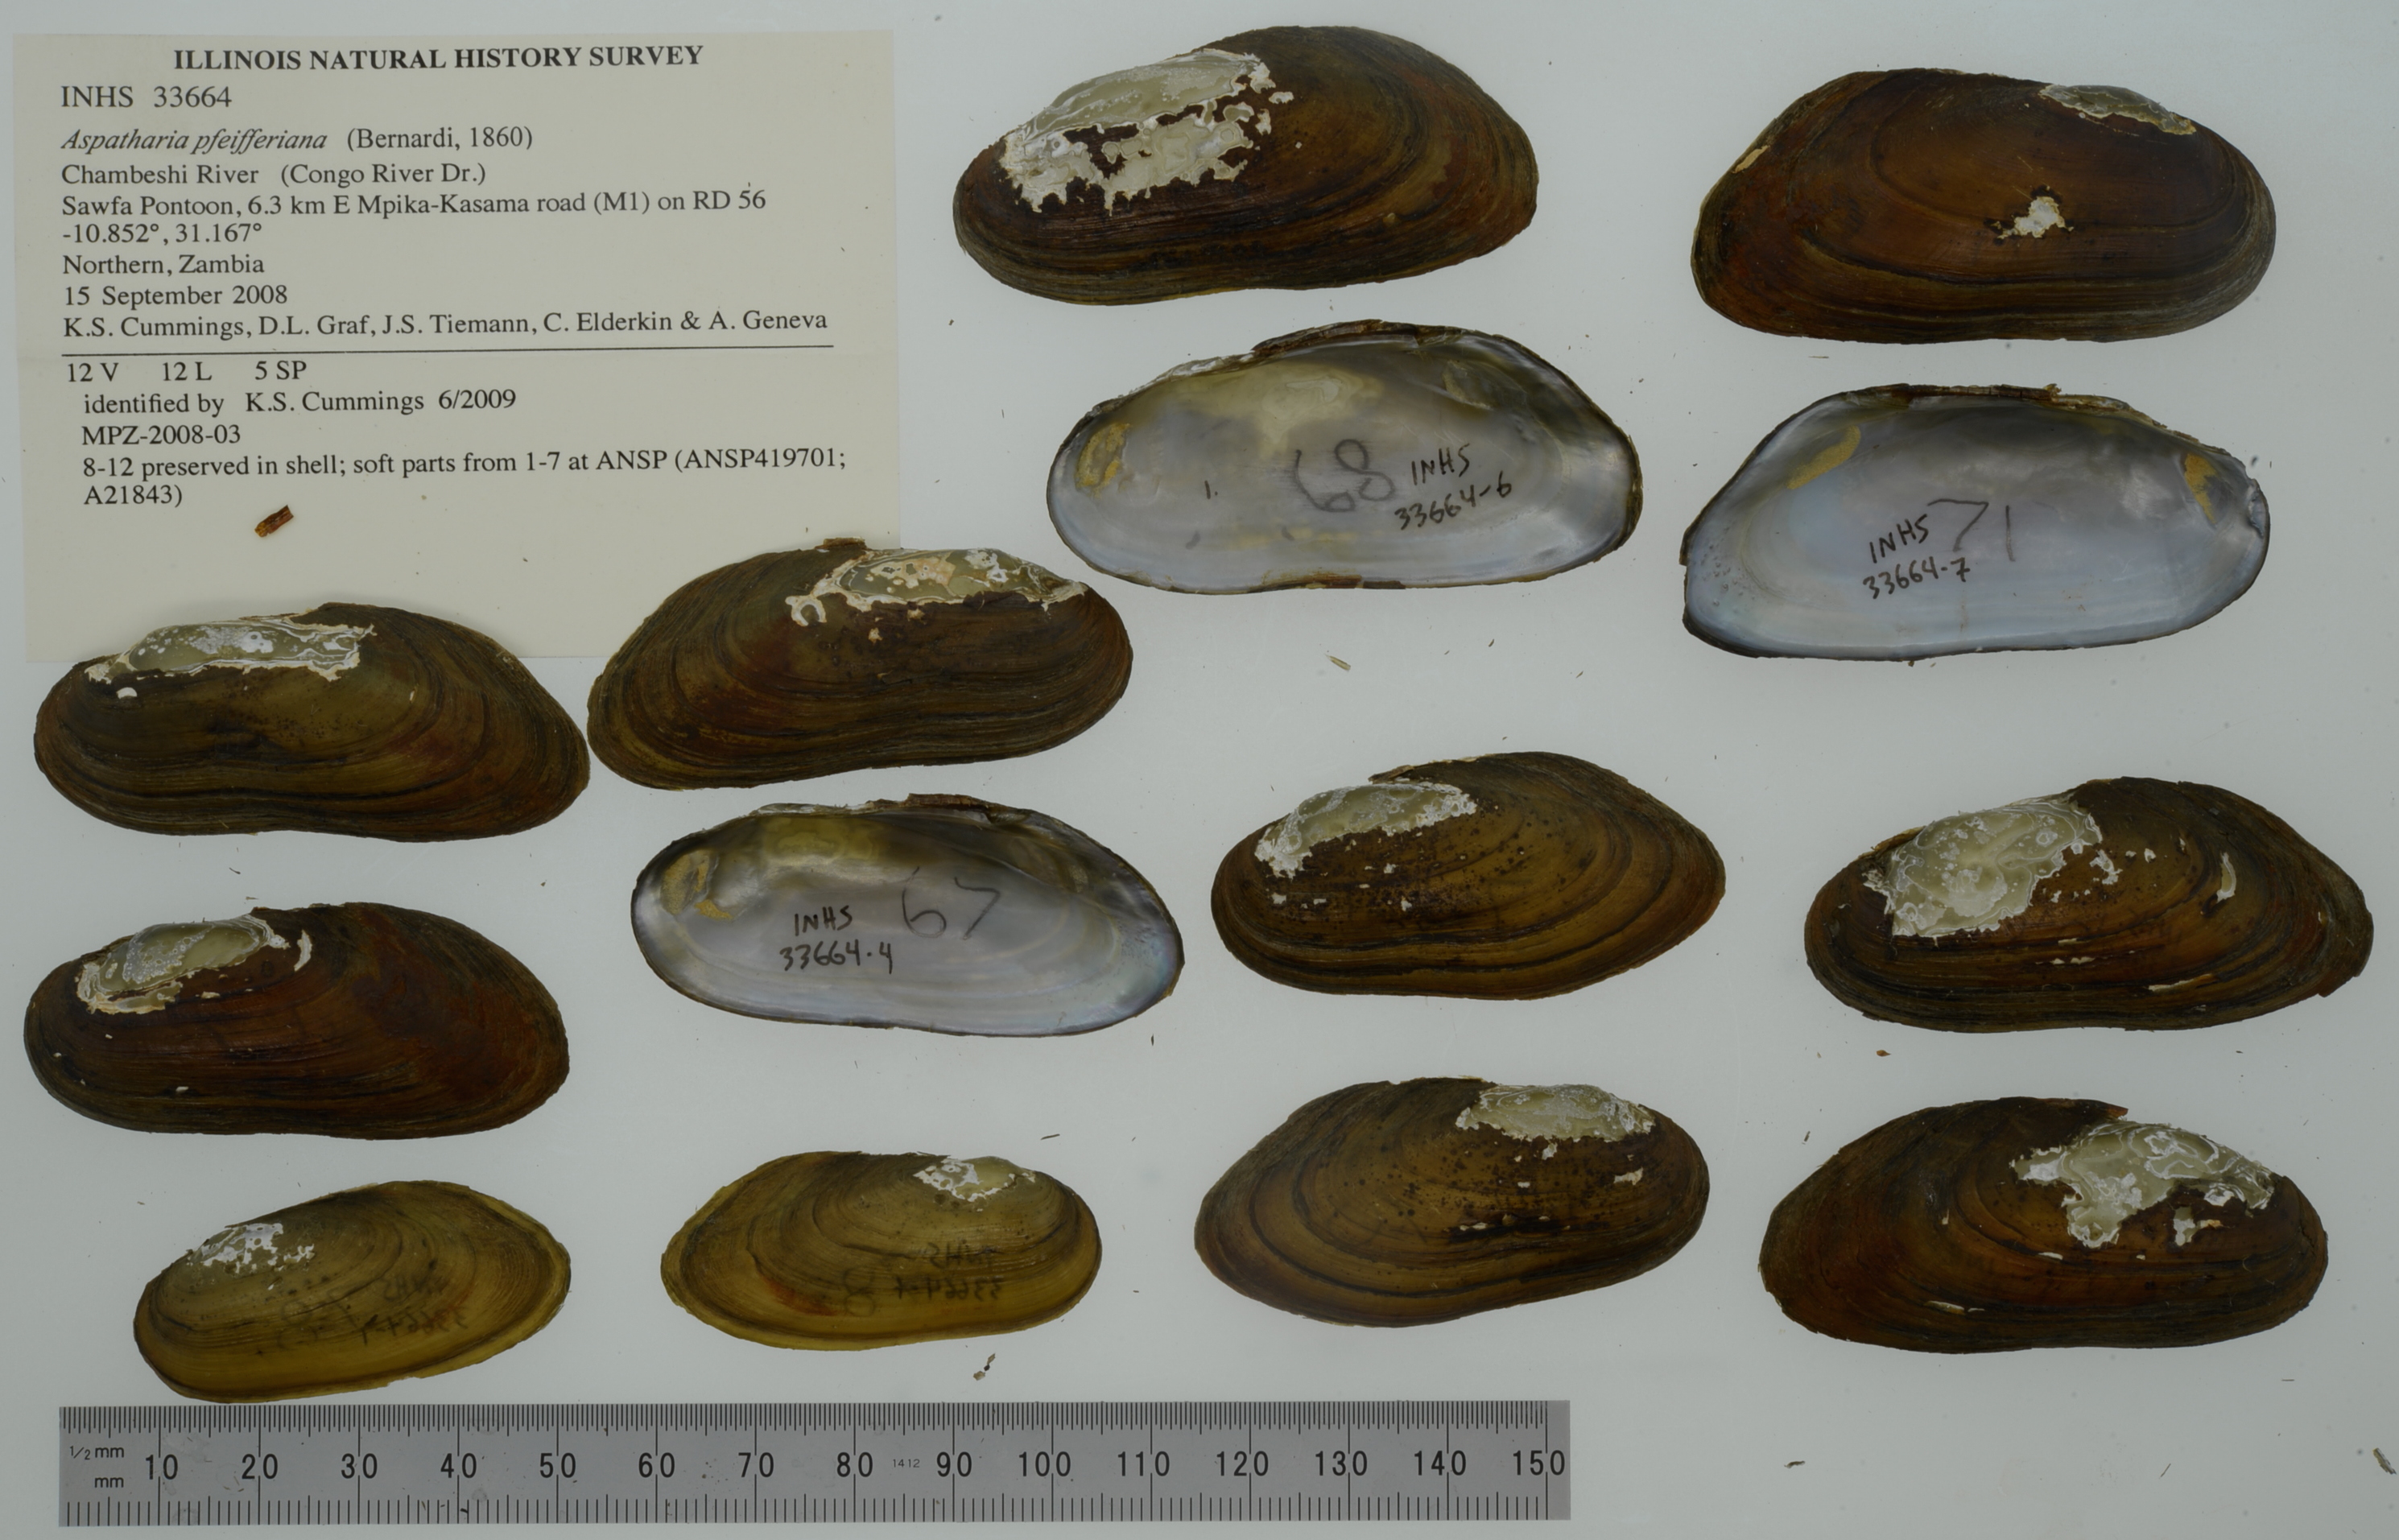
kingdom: Animalia
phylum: Mollusca
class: Bivalvia
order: Unionida
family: Iridinidae
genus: Aspatharia
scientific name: Aspatharia pfeifferiana
